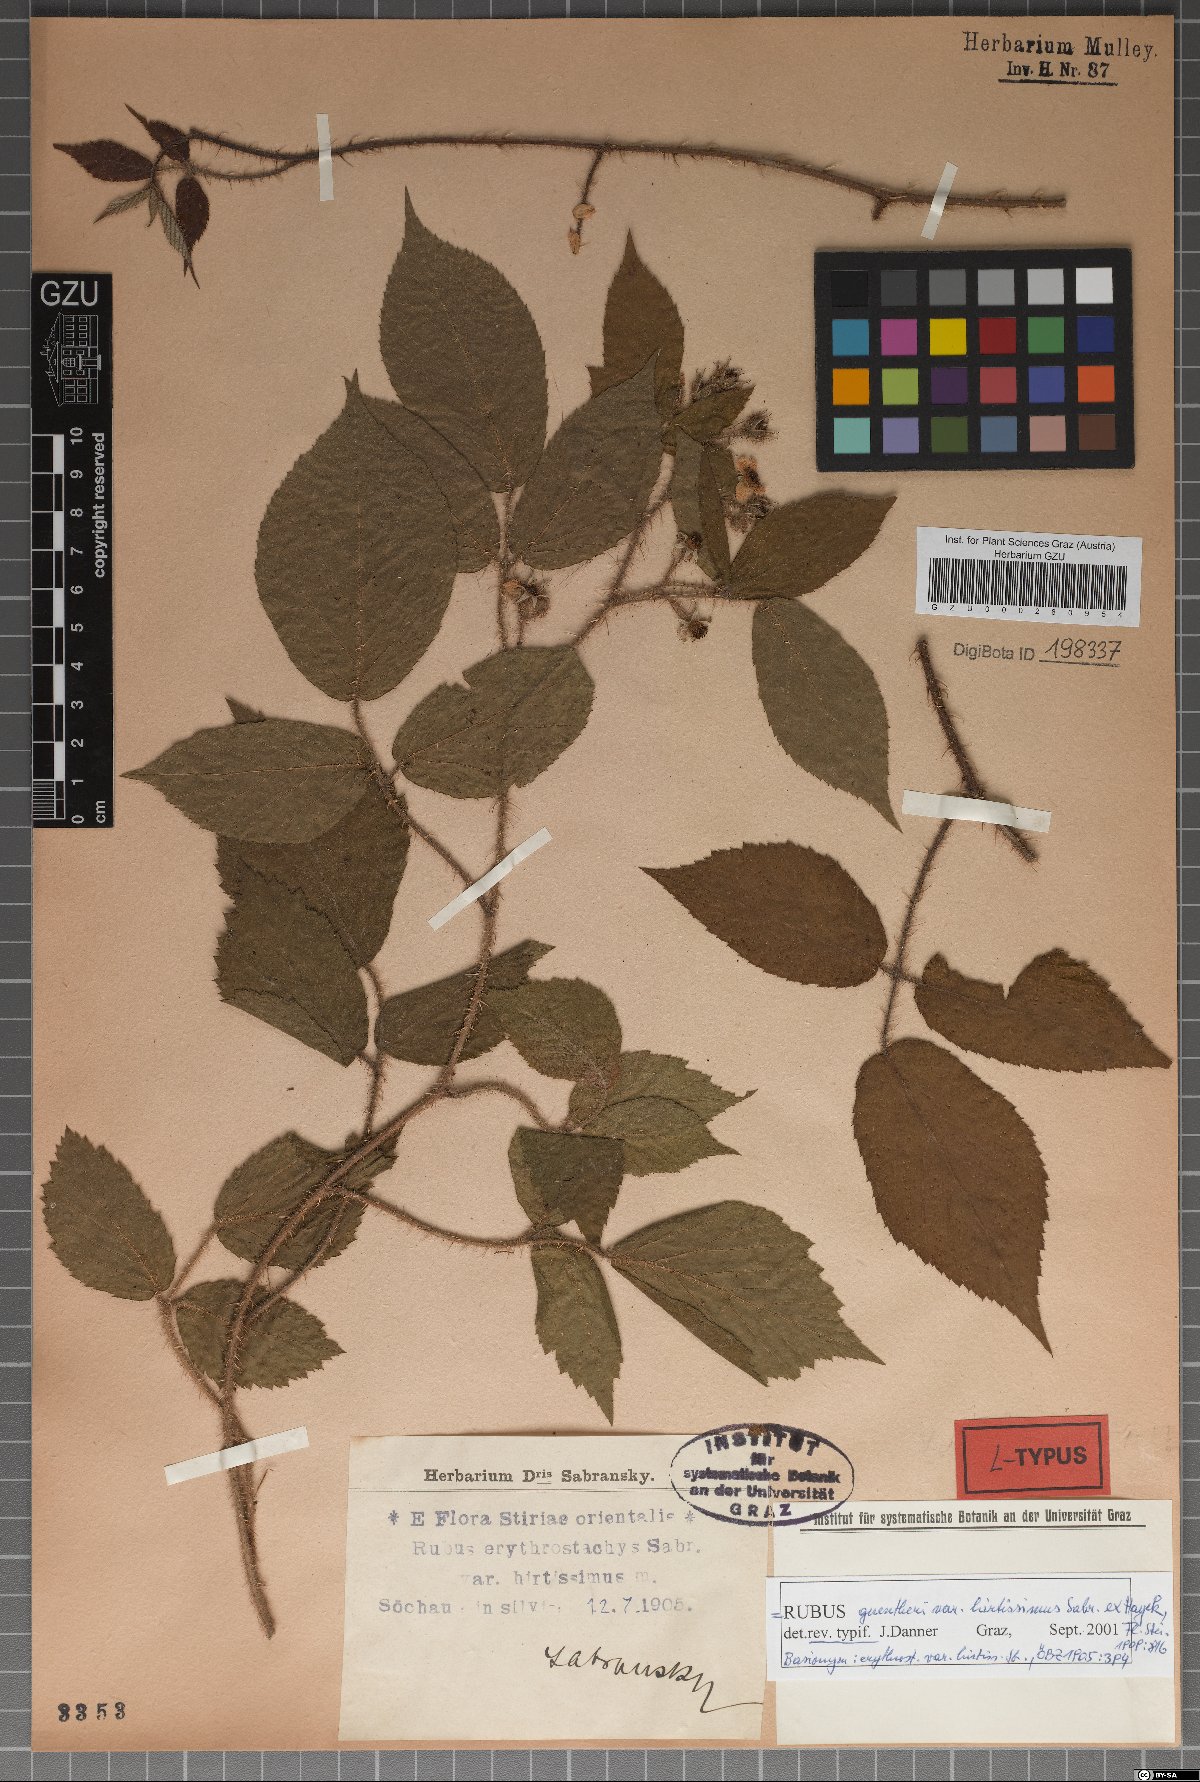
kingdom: Plantae
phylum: Tracheophyta
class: Magnoliopsida
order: Rosales
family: Rosaceae
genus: Rubus
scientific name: Rubus guentheri
